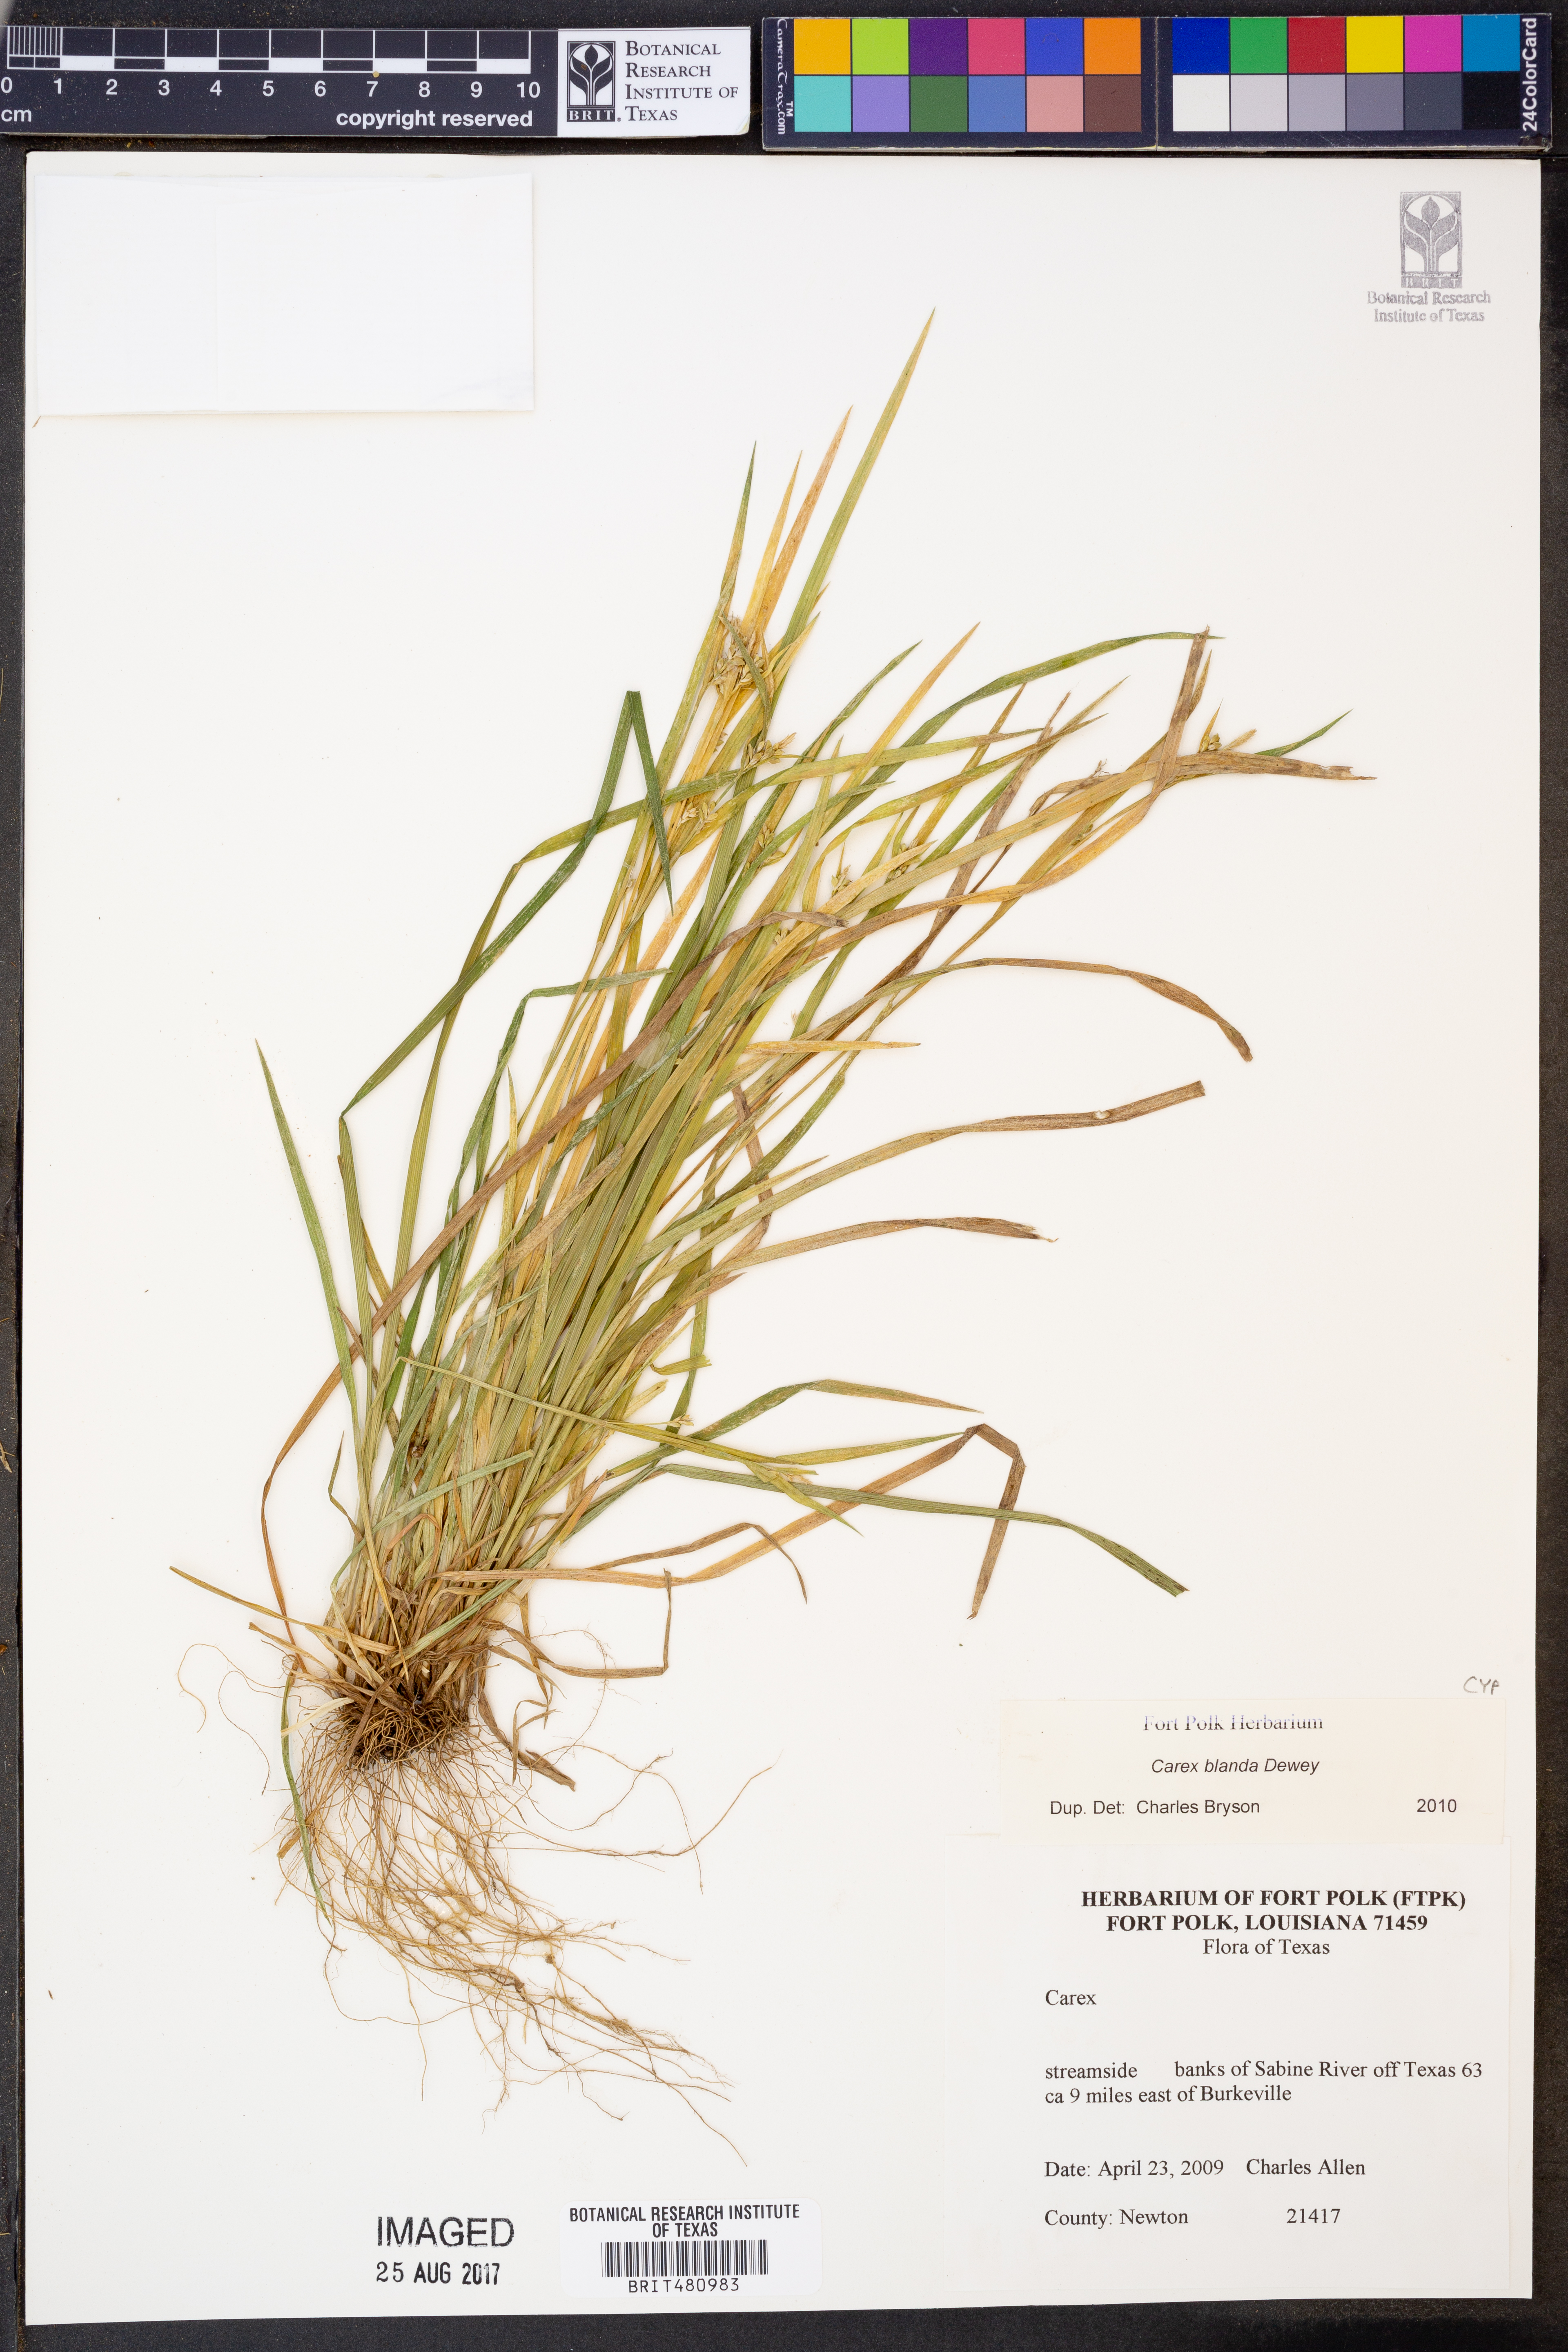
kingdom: Plantae
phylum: Tracheophyta
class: Liliopsida
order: Poales
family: Cyperaceae
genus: Carex
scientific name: Carex blanda
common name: Bland sedge
